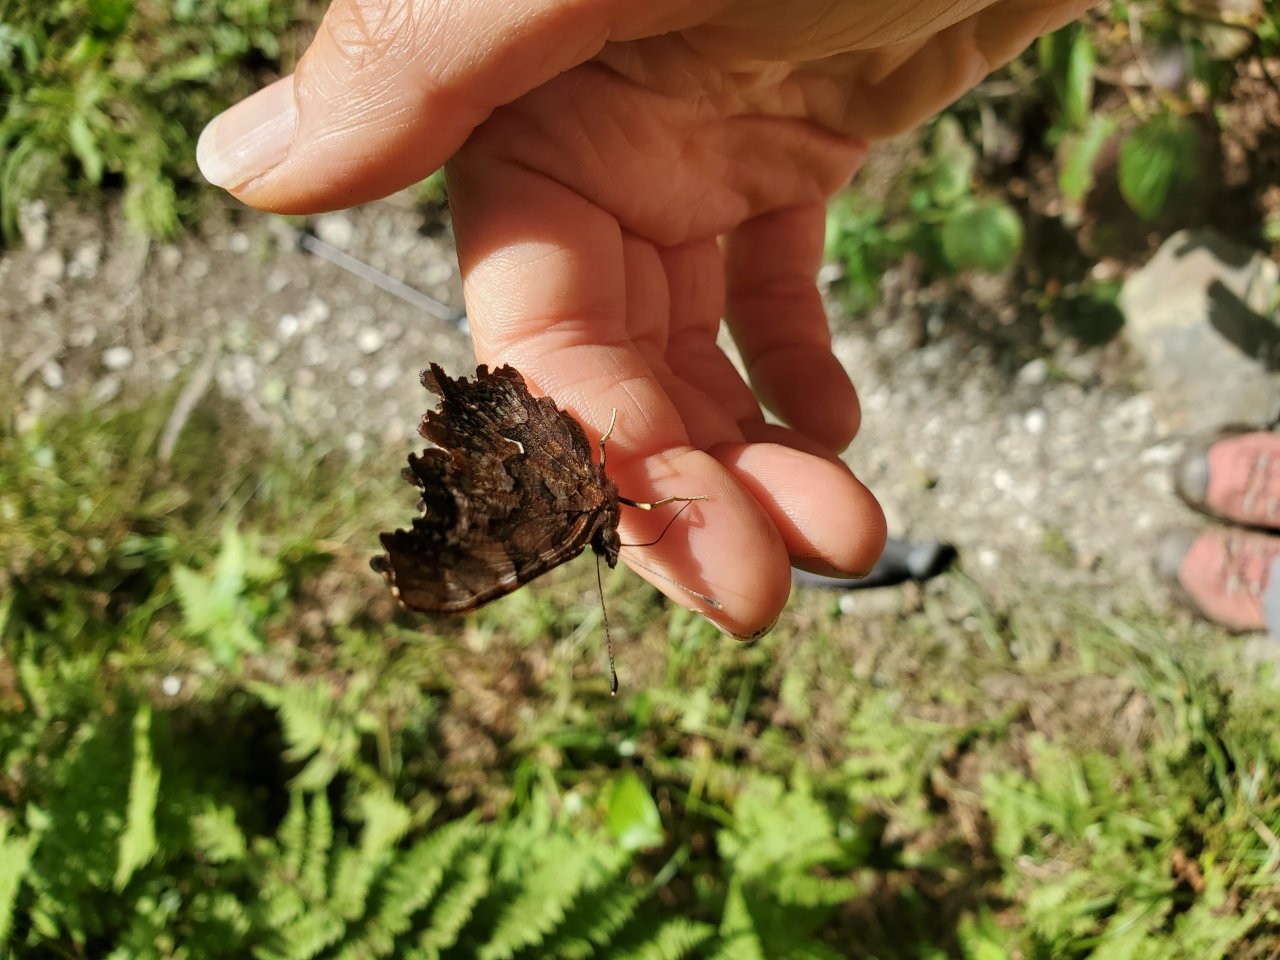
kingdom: Animalia
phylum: Arthropoda
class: Insecta
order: Lepidoptera
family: Nymphalidae
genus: Polygonia
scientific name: Polygonia faunus
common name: Green Comma
